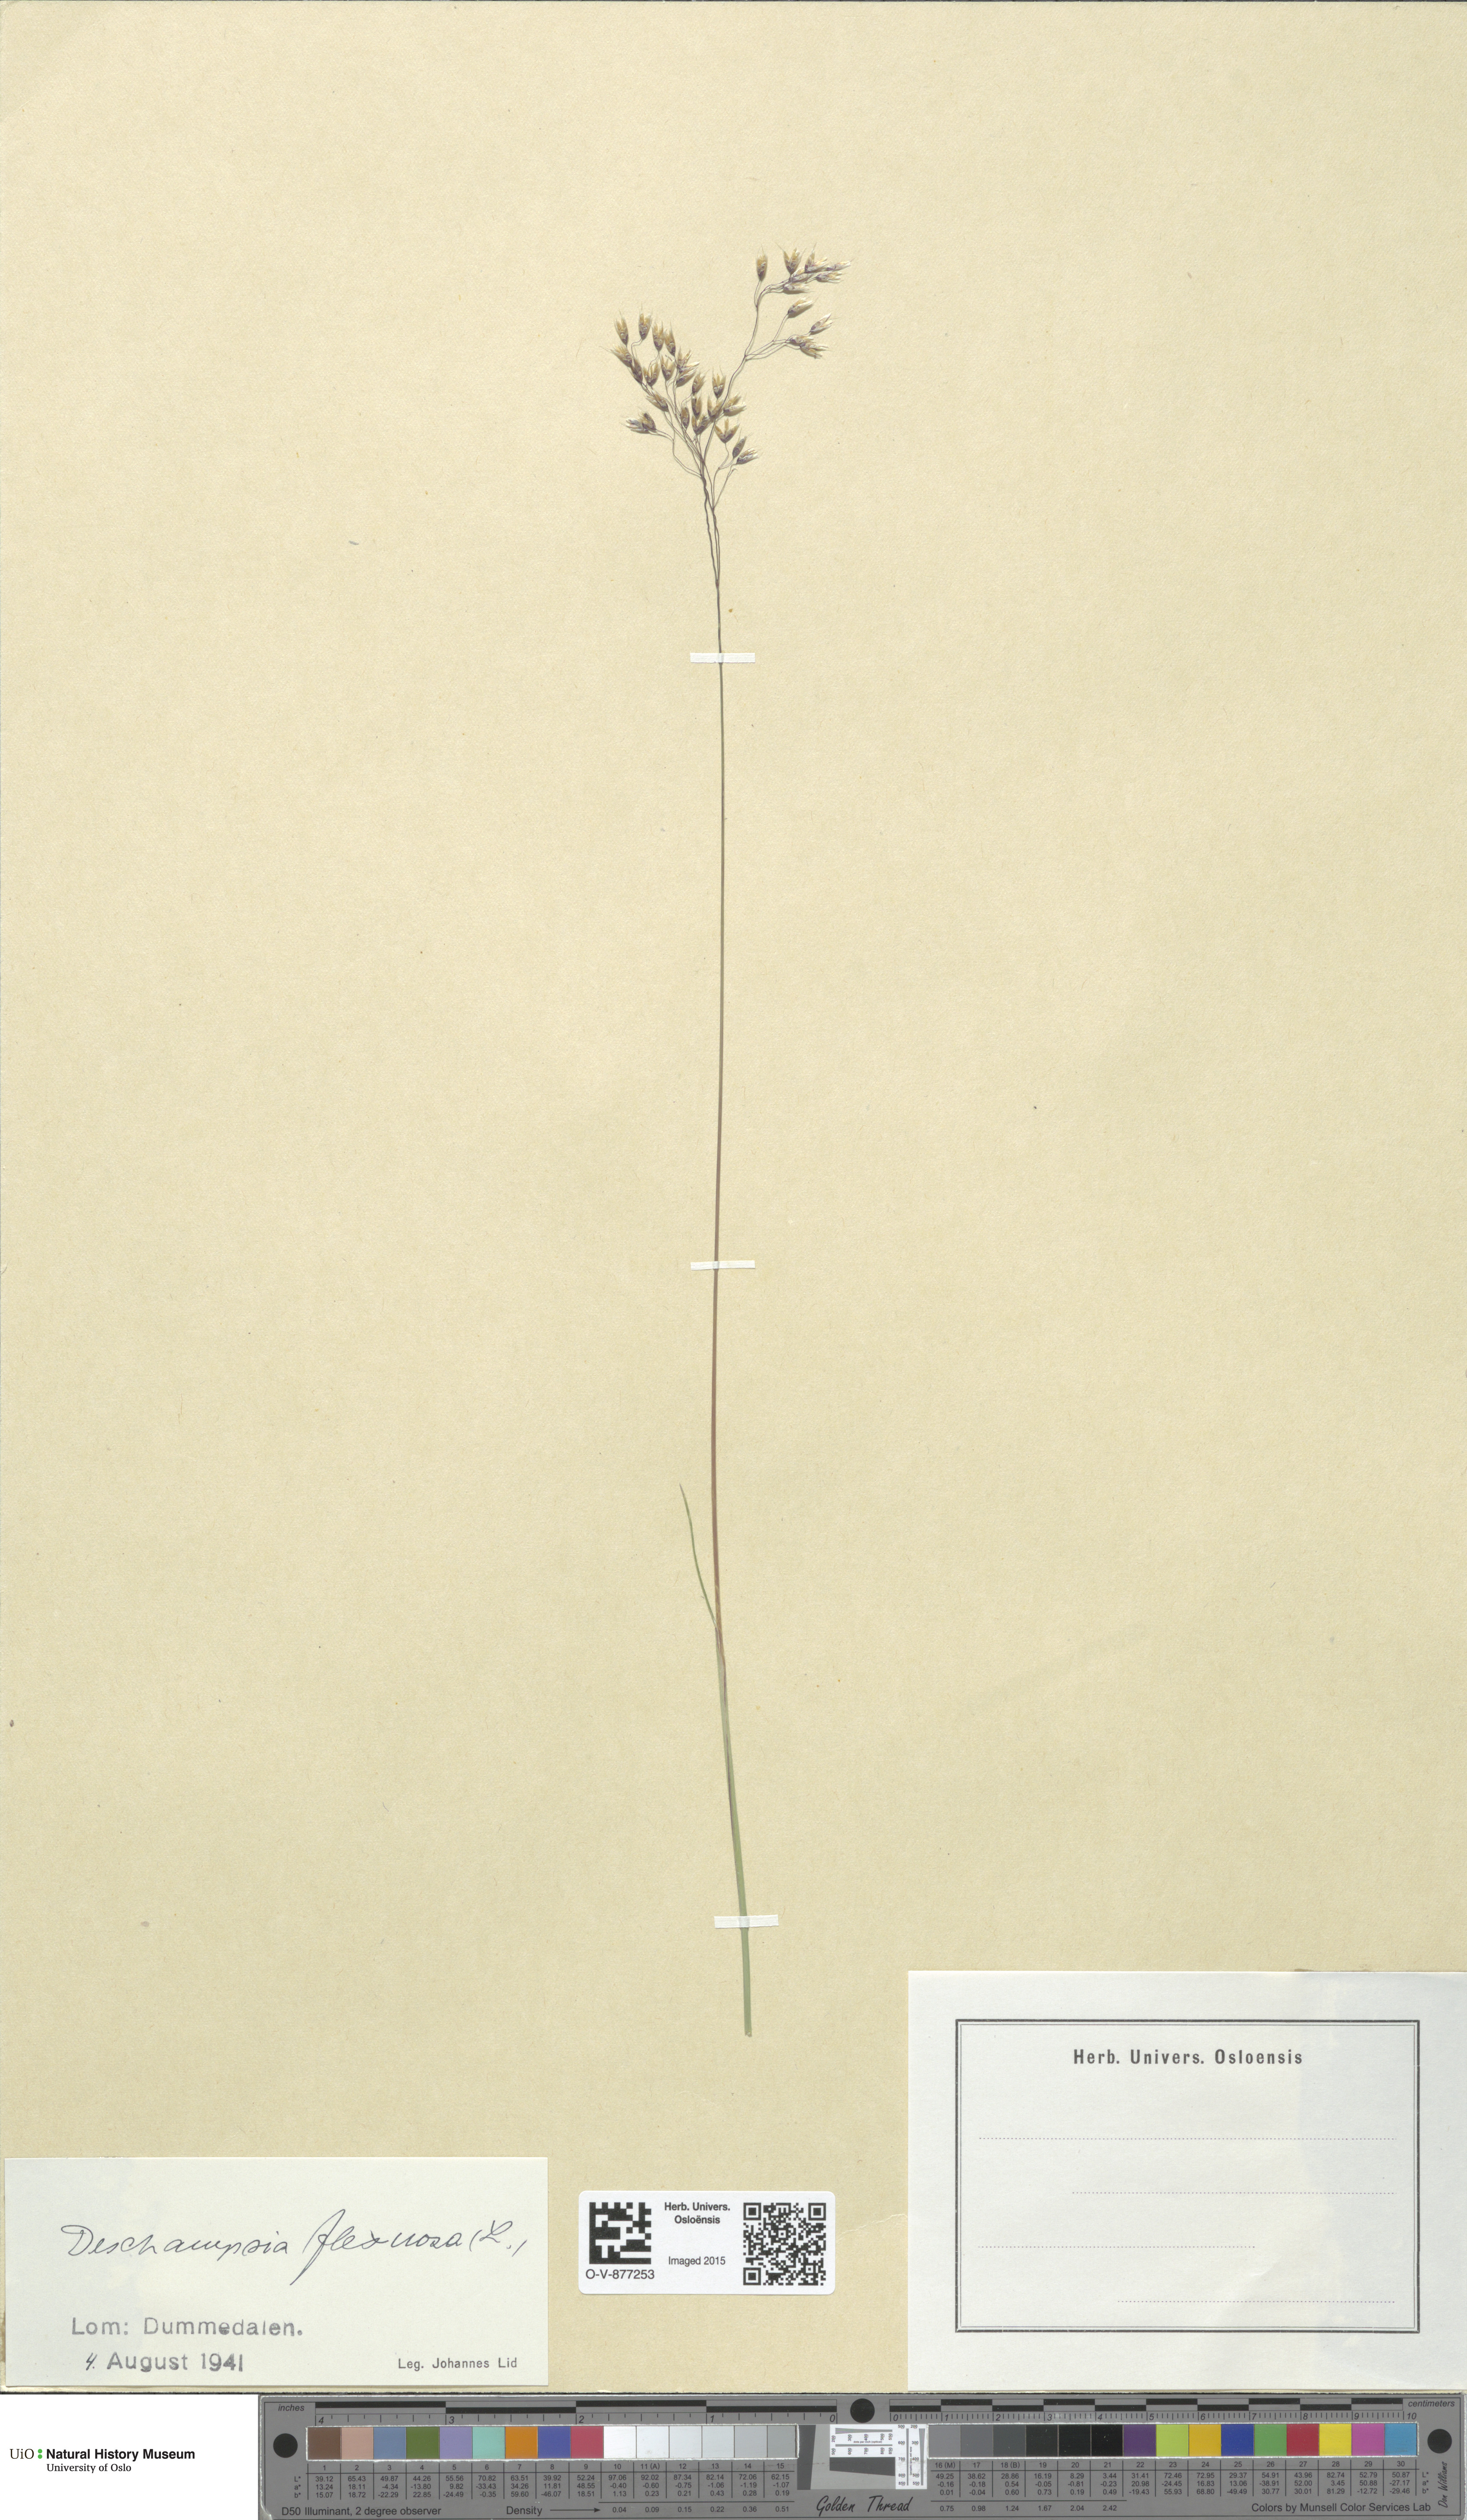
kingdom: Plantae
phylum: Tracheophyta
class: Liliopsida
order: Poales
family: Poaceae
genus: Avenella
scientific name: Avenella flexuosa
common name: Wavy hairgrass
